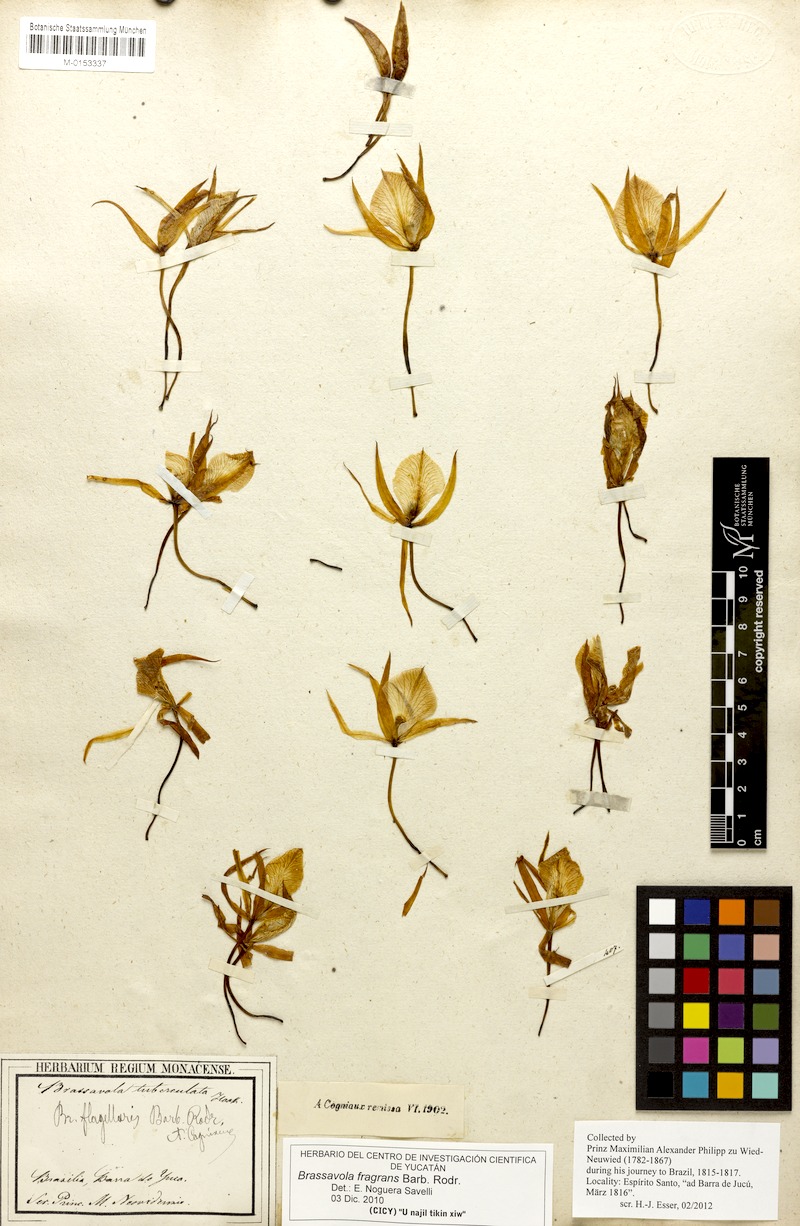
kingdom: Plantae
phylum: Tracheophyta
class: Liliopsida
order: Asparagales
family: Orchidaceae
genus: Brassavola
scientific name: Brassavola flagellaris
